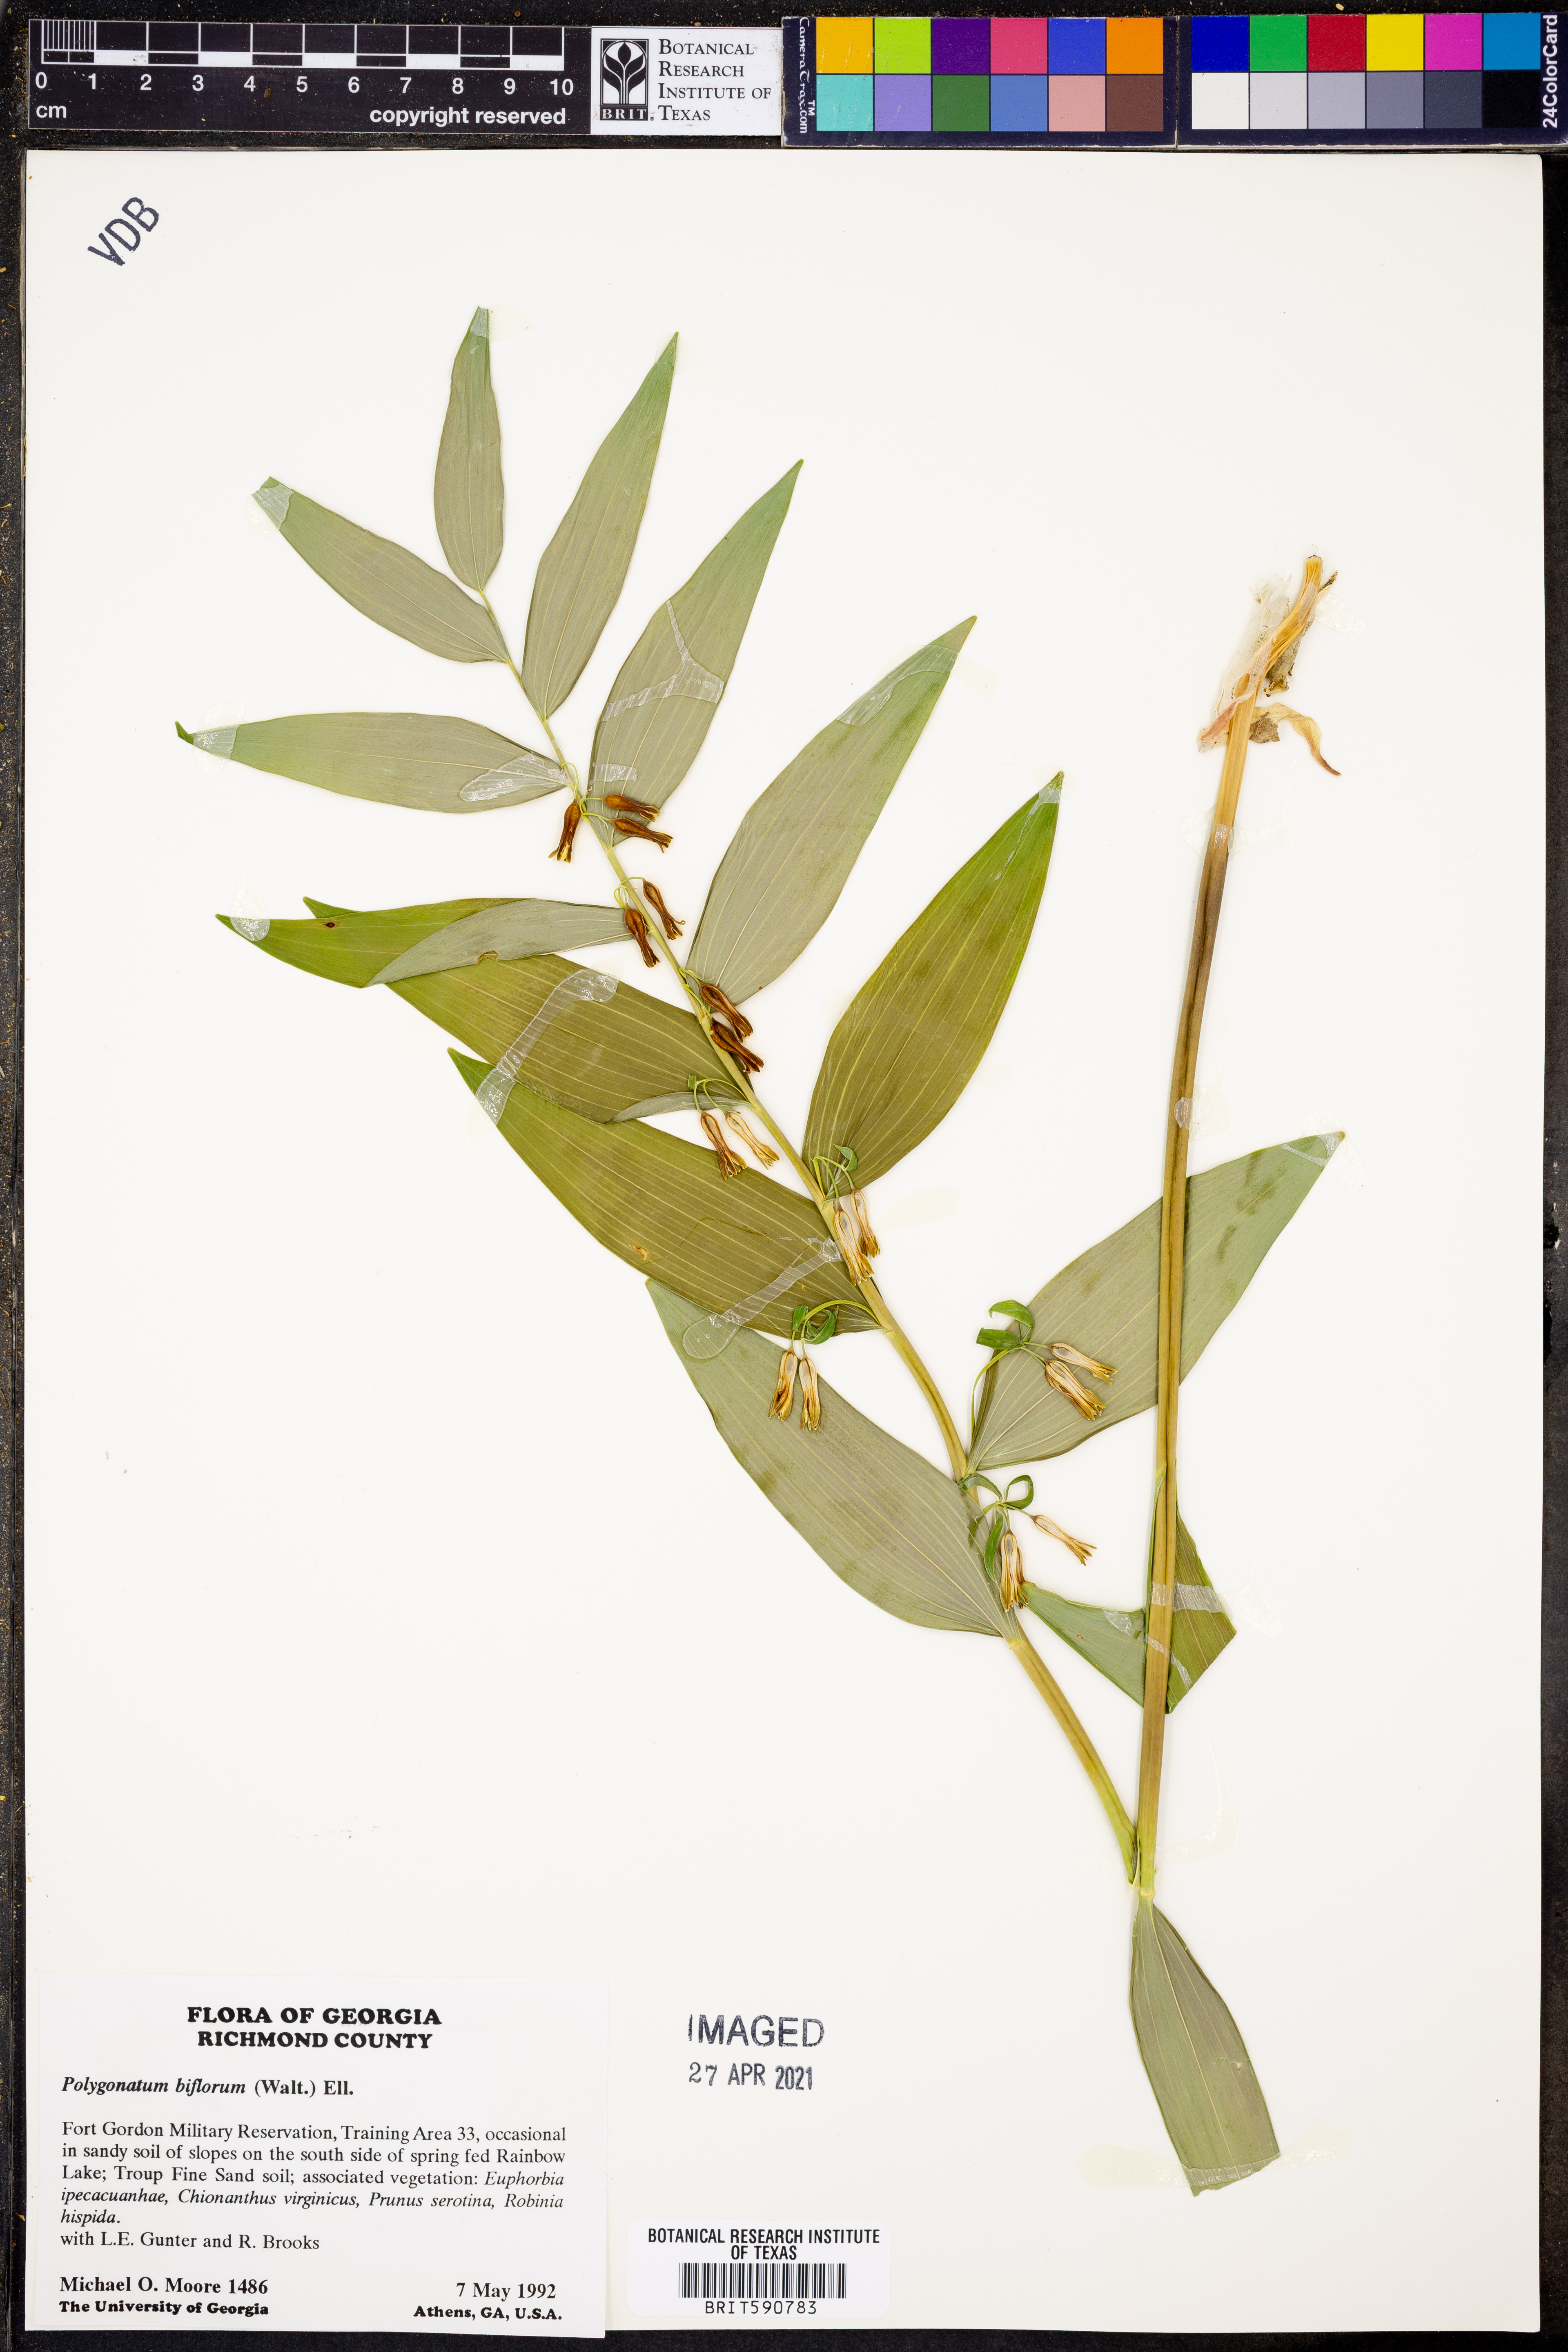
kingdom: Plantae
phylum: Tracheophyta
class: Liliopsida
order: Asparagales
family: Asparagaceae
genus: Polygonatum
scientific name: Polygonatum biflorum
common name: American solomon's-seal
